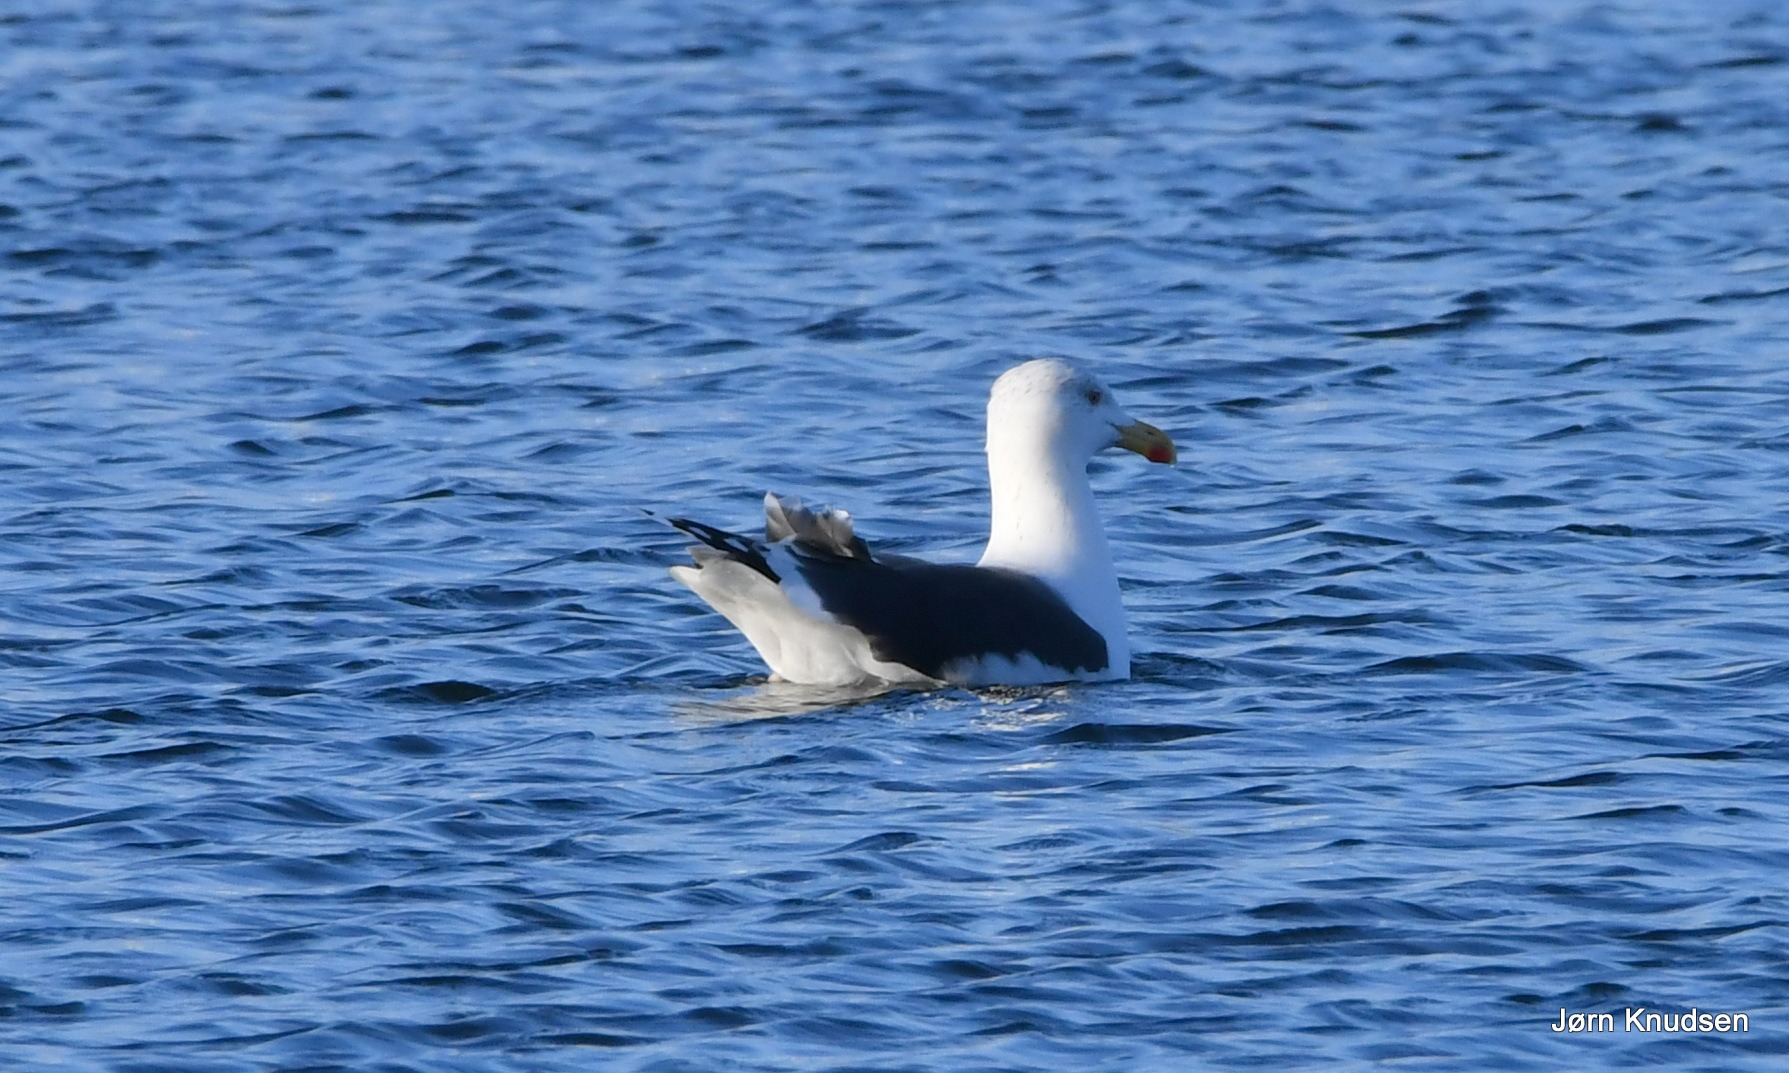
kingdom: Animalia
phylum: Chordata
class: Aves
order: Charadriiformes
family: Laridae
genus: Larus
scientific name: Larus marinus
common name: Svartbag
